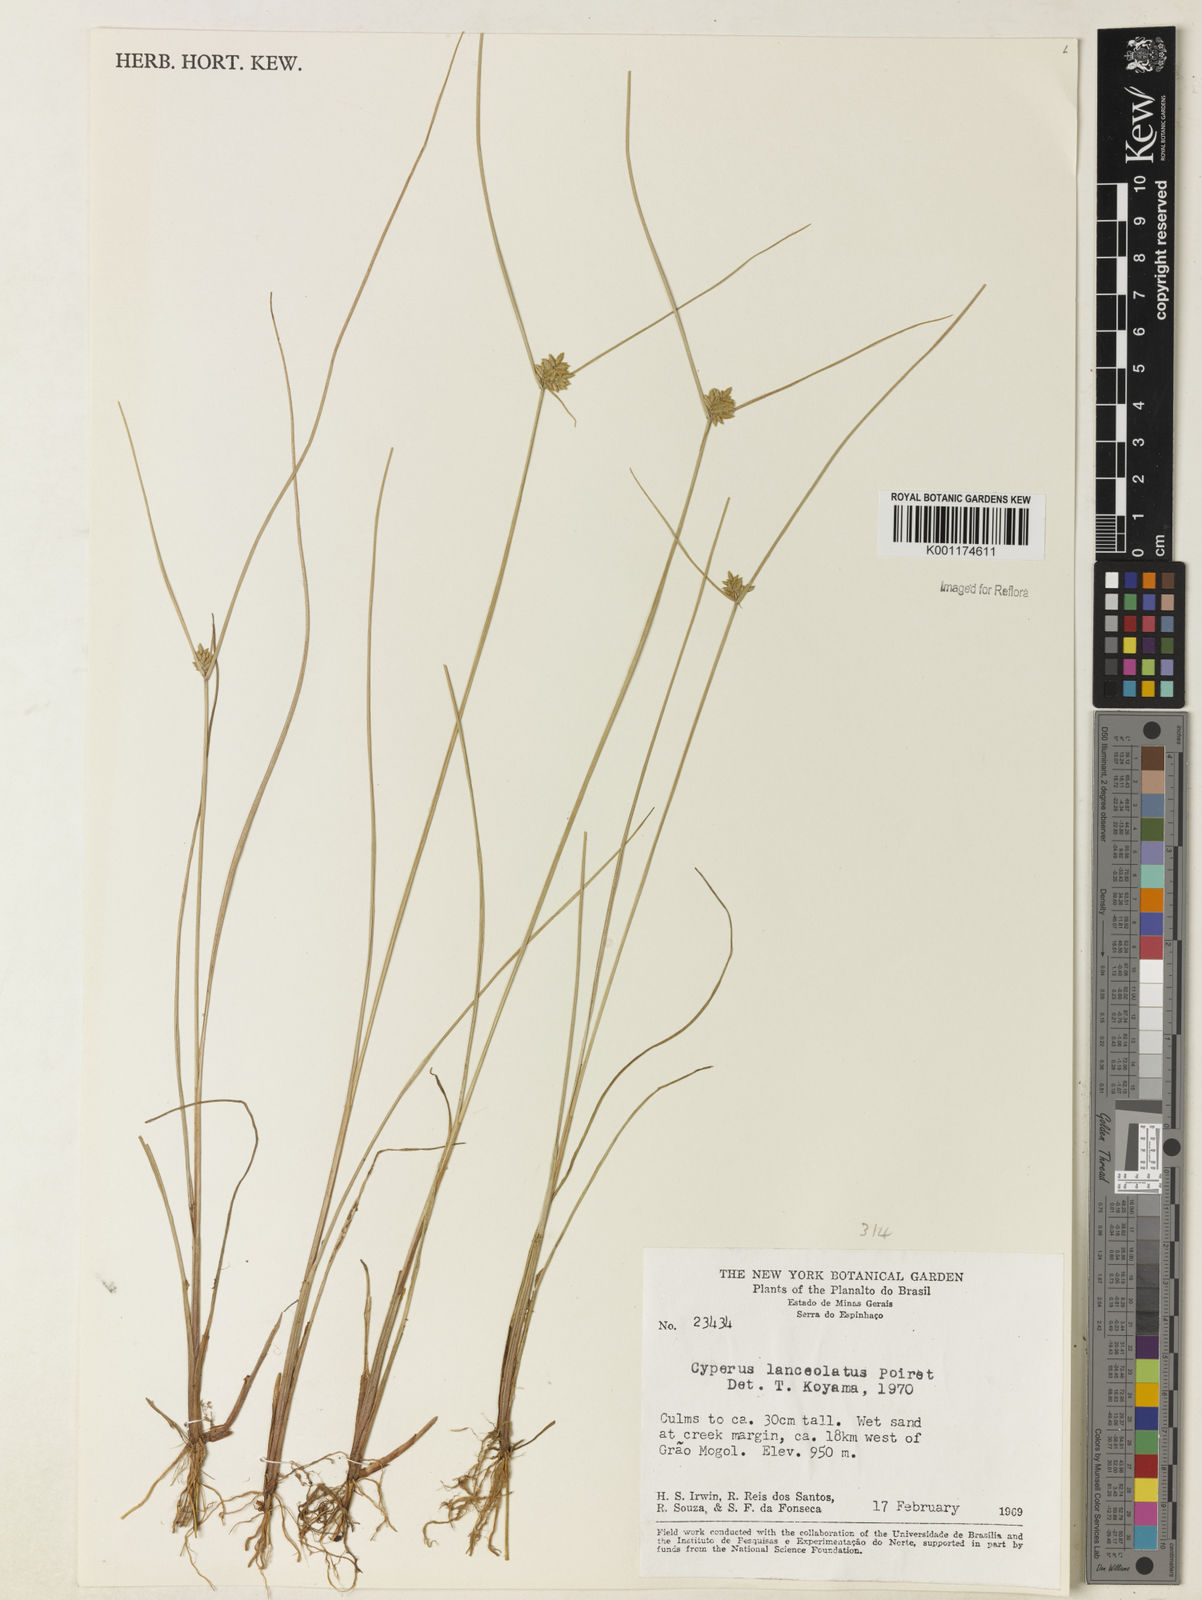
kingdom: Plantae
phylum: Tracheophyta
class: Liliopsida
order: Poales
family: Cyperaceae
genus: Cyperus
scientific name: Cyperus
